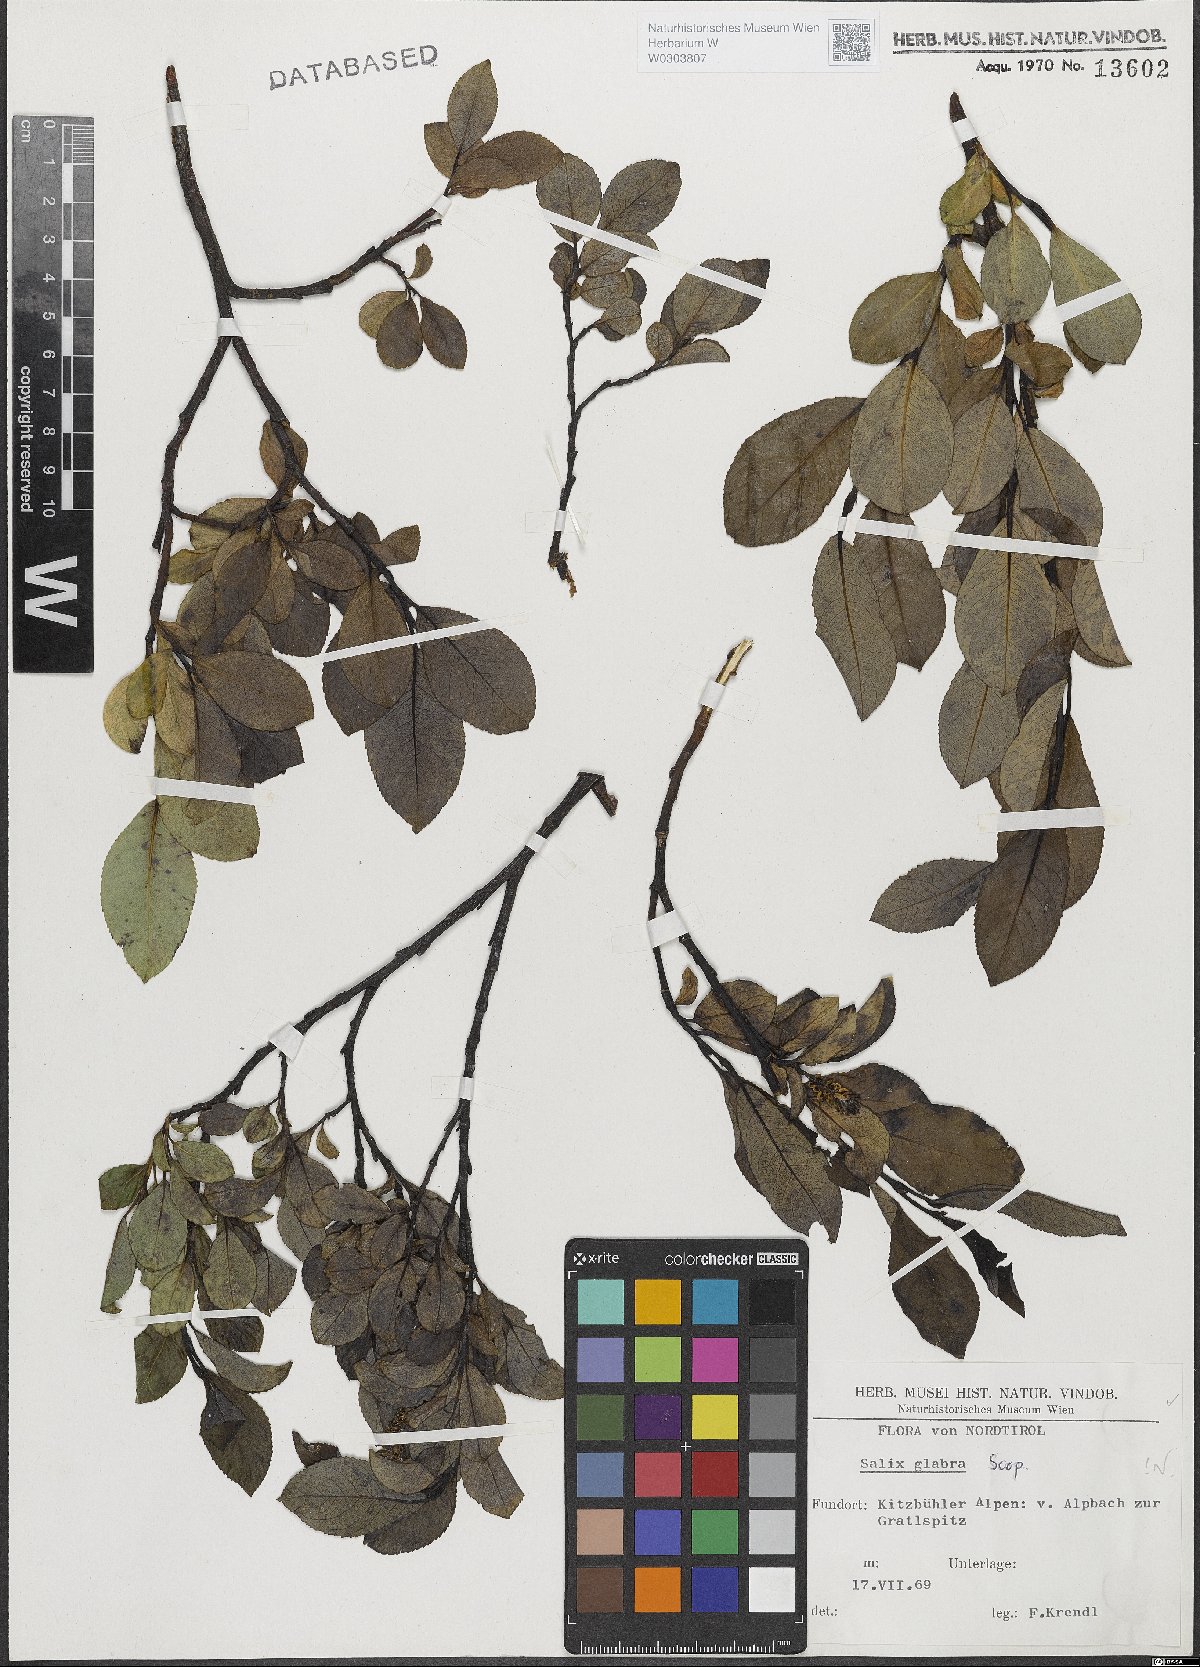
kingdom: Plantae
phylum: Tracheophyta
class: Magnoliopsida
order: Malpighiales
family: Salicaceae
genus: Salix
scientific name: Salix glabra
